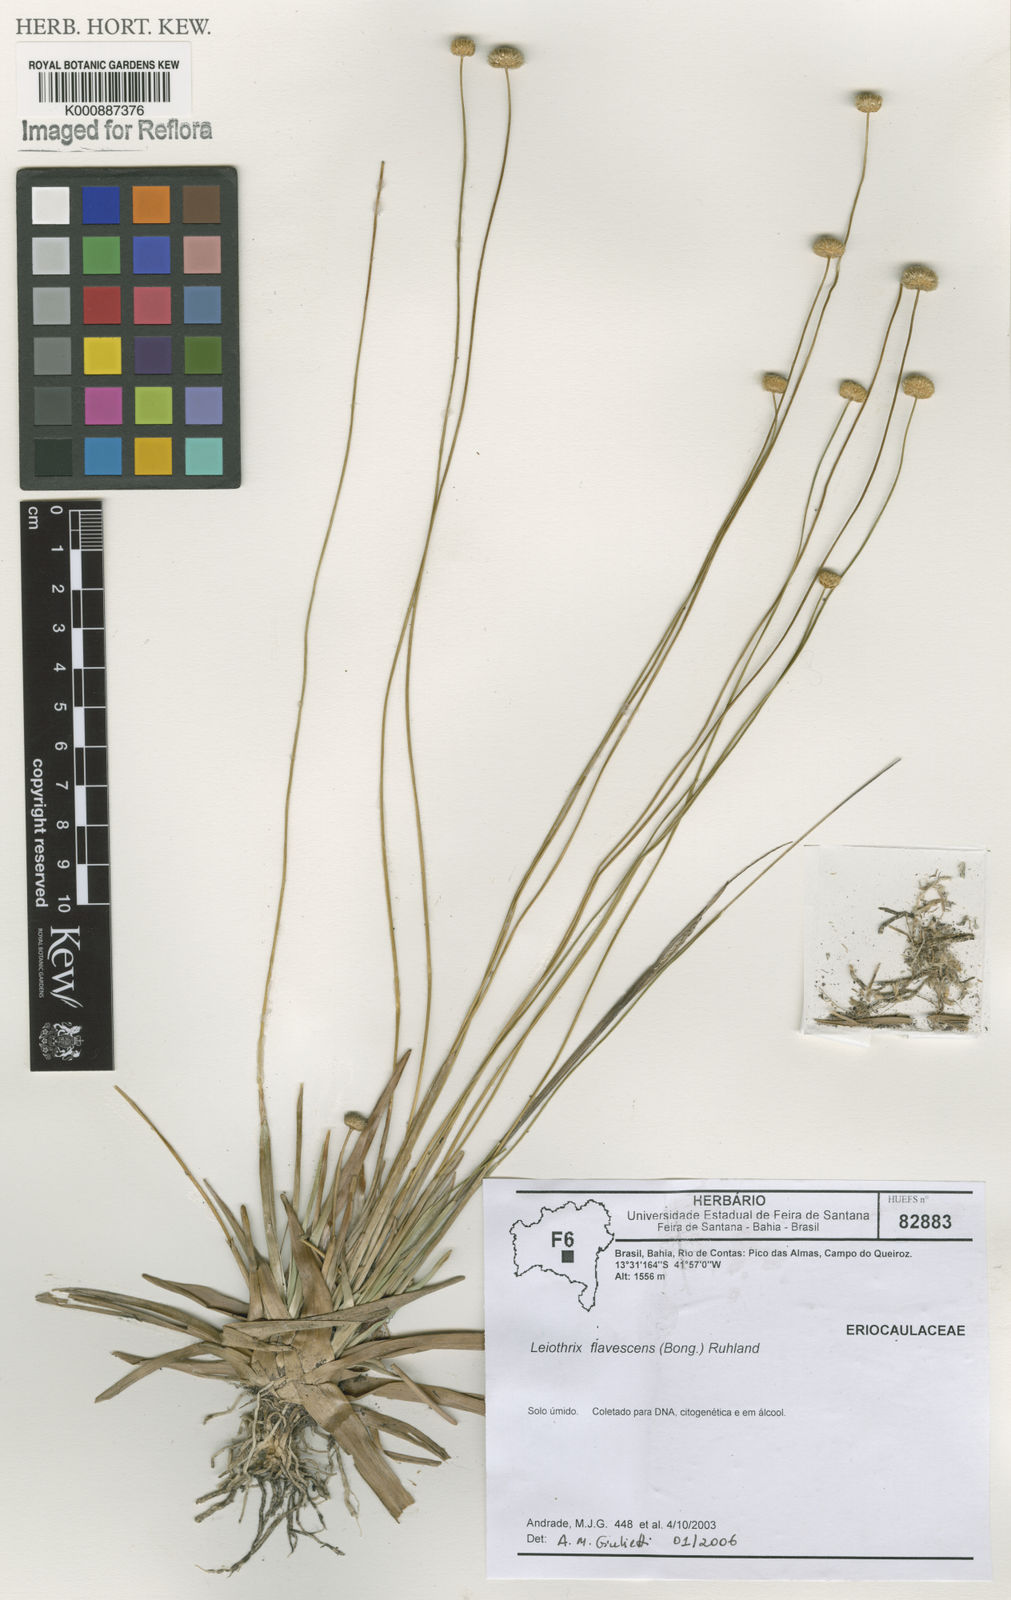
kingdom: Plantae
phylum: Tracheophyta
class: Liliopsida
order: Poales
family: Eriocaulaceae
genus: Leiothrix
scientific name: Leiothrix flavescens
